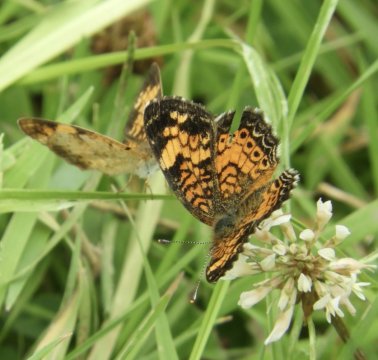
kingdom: Animalia
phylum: Arthropoda
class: Insecta
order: Lepidoptera
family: Nymphalidae
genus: Phyciodes
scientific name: Phyciodes
